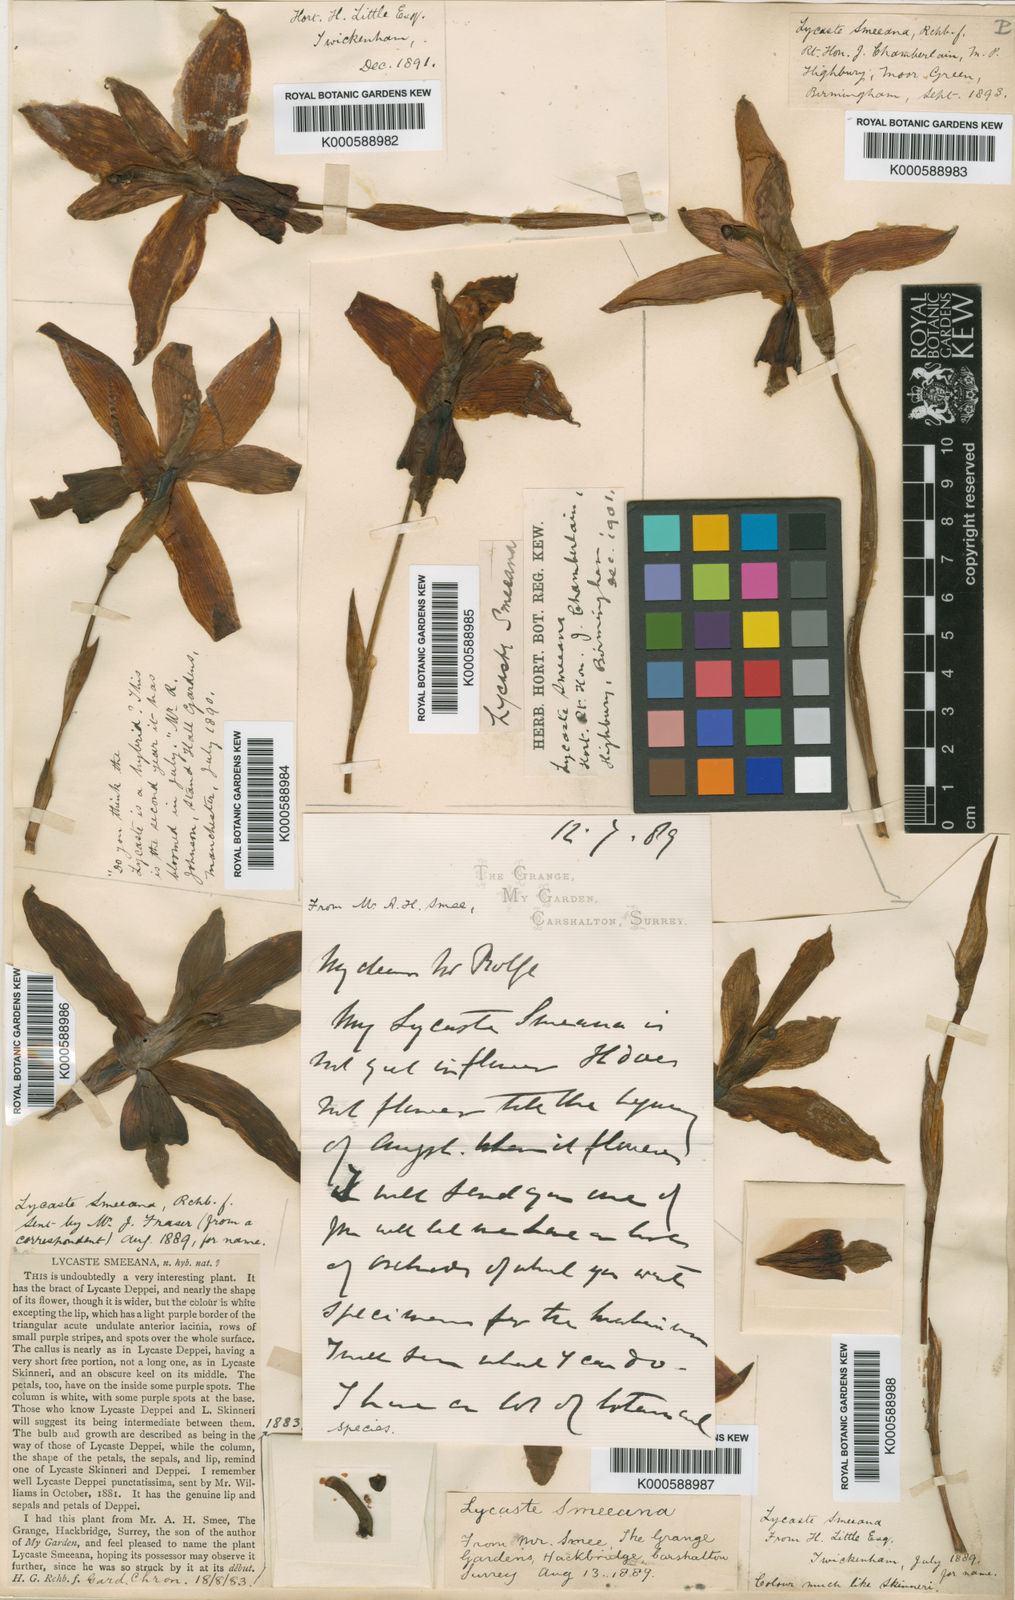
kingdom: Plantae
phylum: Tracheophyta
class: Liliopsida
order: Asparagales
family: Orchidaceae
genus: Lycaste
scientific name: Lycaste smeeana
